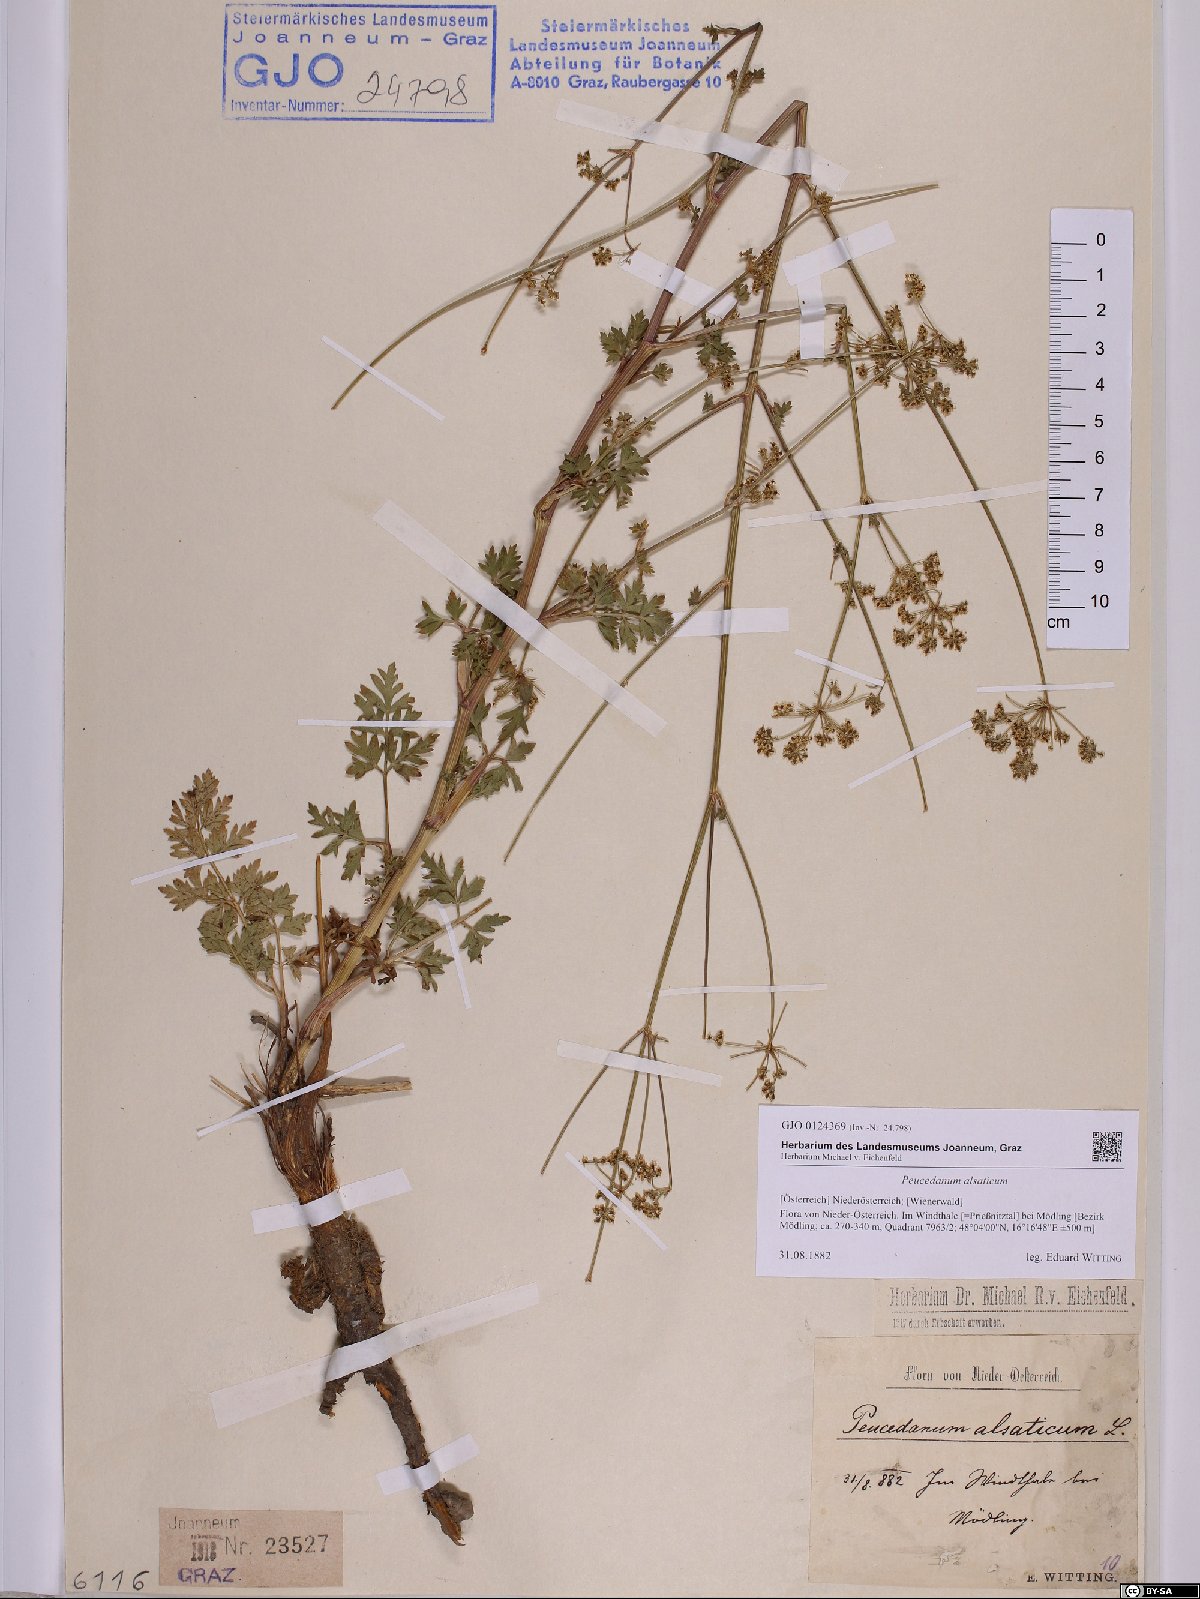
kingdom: Plantae
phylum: Tracheophyta
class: Magnoliopsida
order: Apiales
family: Apiaceae
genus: Xanthoselinum
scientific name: Xanthoselinum alsaticum
